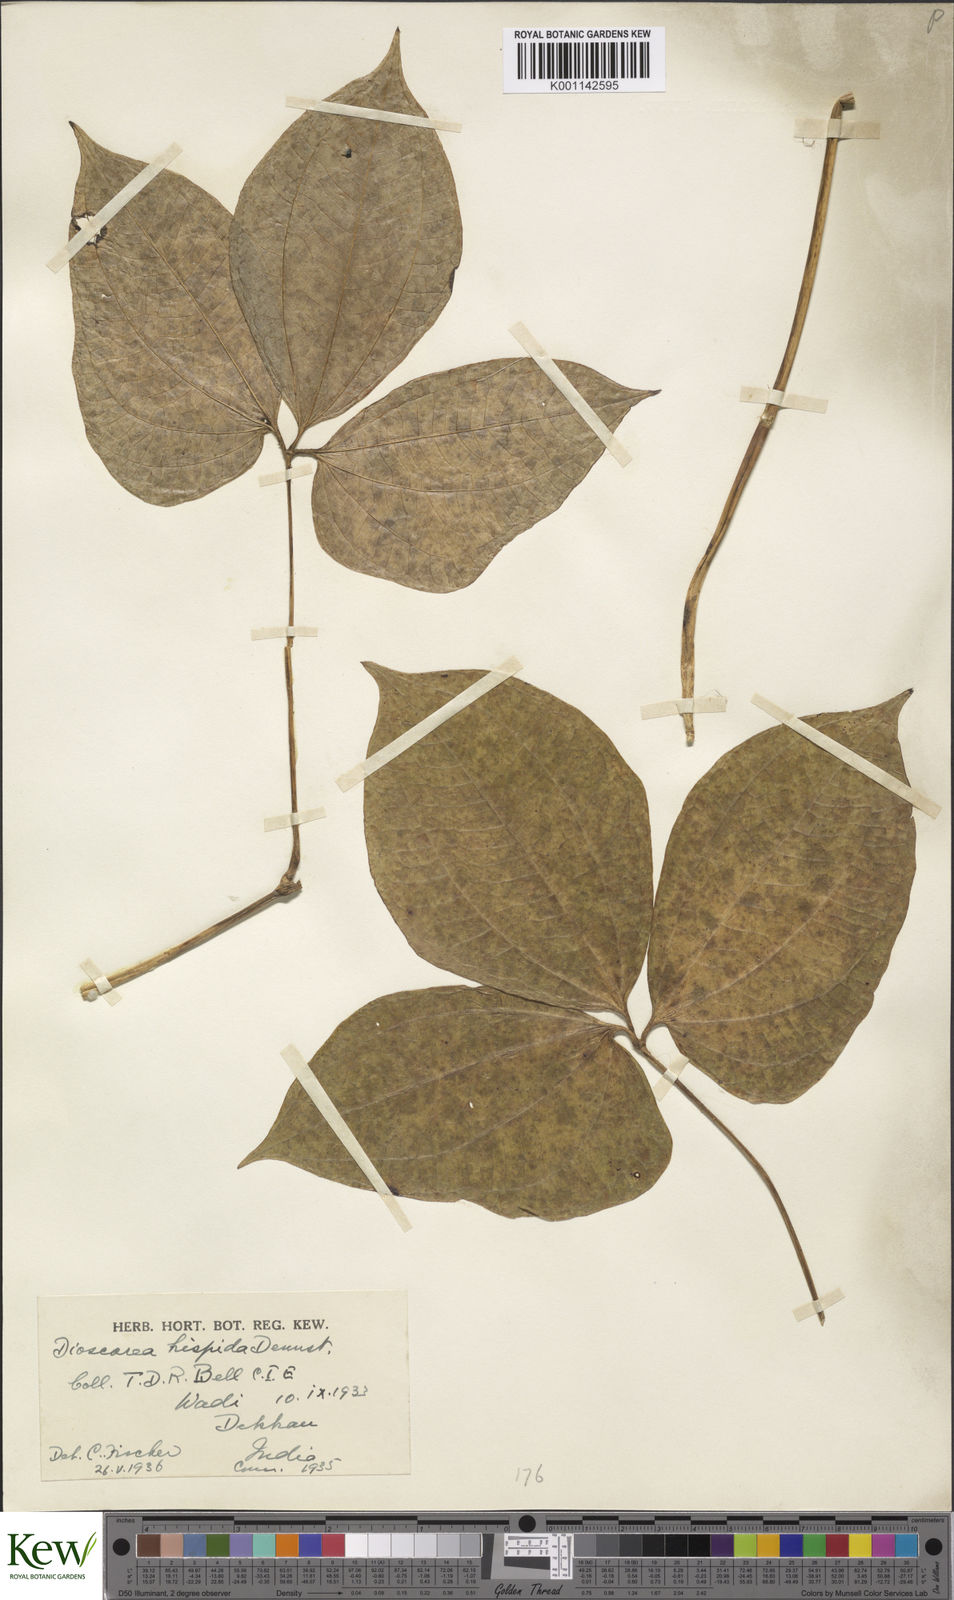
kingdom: Plantae
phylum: Tracheophyta
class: Liliopsida
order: Dioscoreales
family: Dioscoreaceae
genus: Dioscorea
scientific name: Dioscorea pentaphylla
